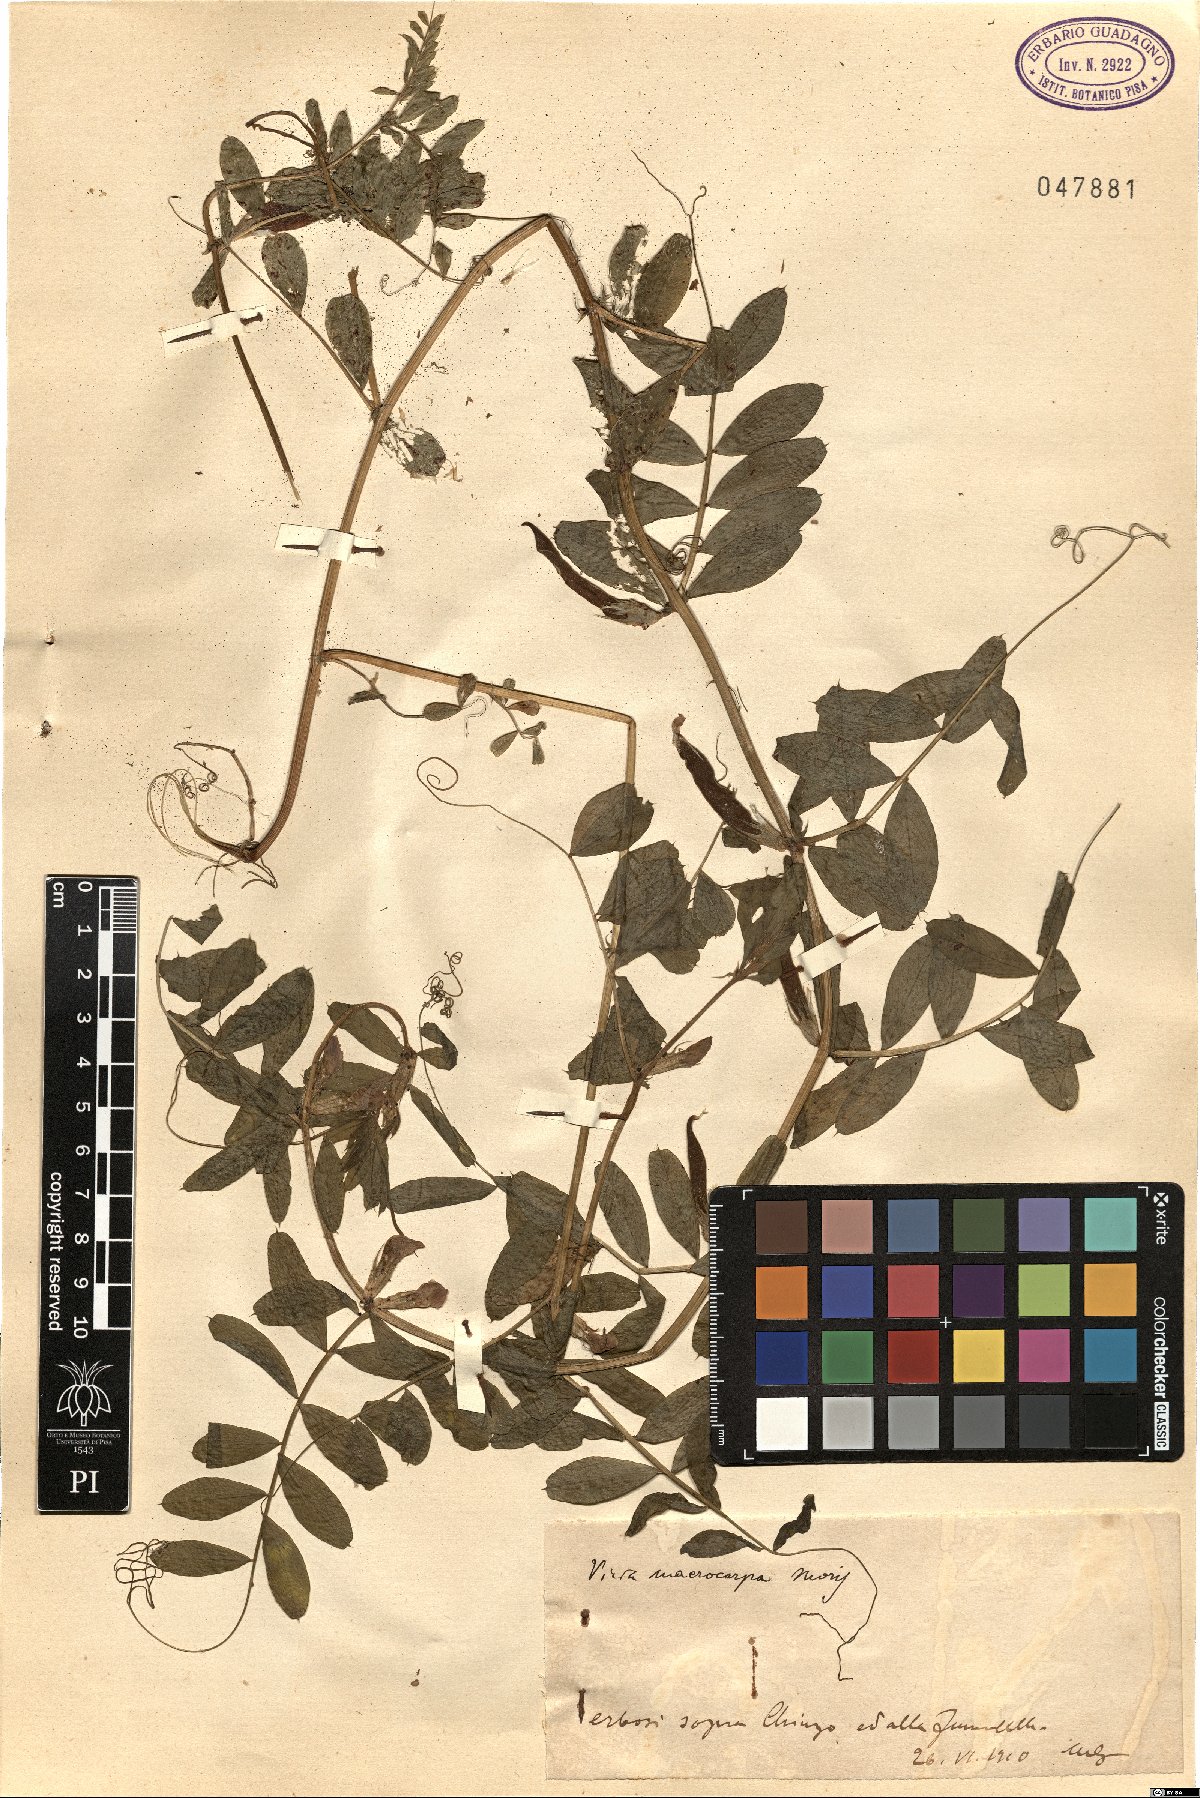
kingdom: Plantae
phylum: Tracheophyta
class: Magnoliopsida
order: Fabales
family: Fabaceae
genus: Vicia
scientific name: Vicia sativa
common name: Garden vetch
